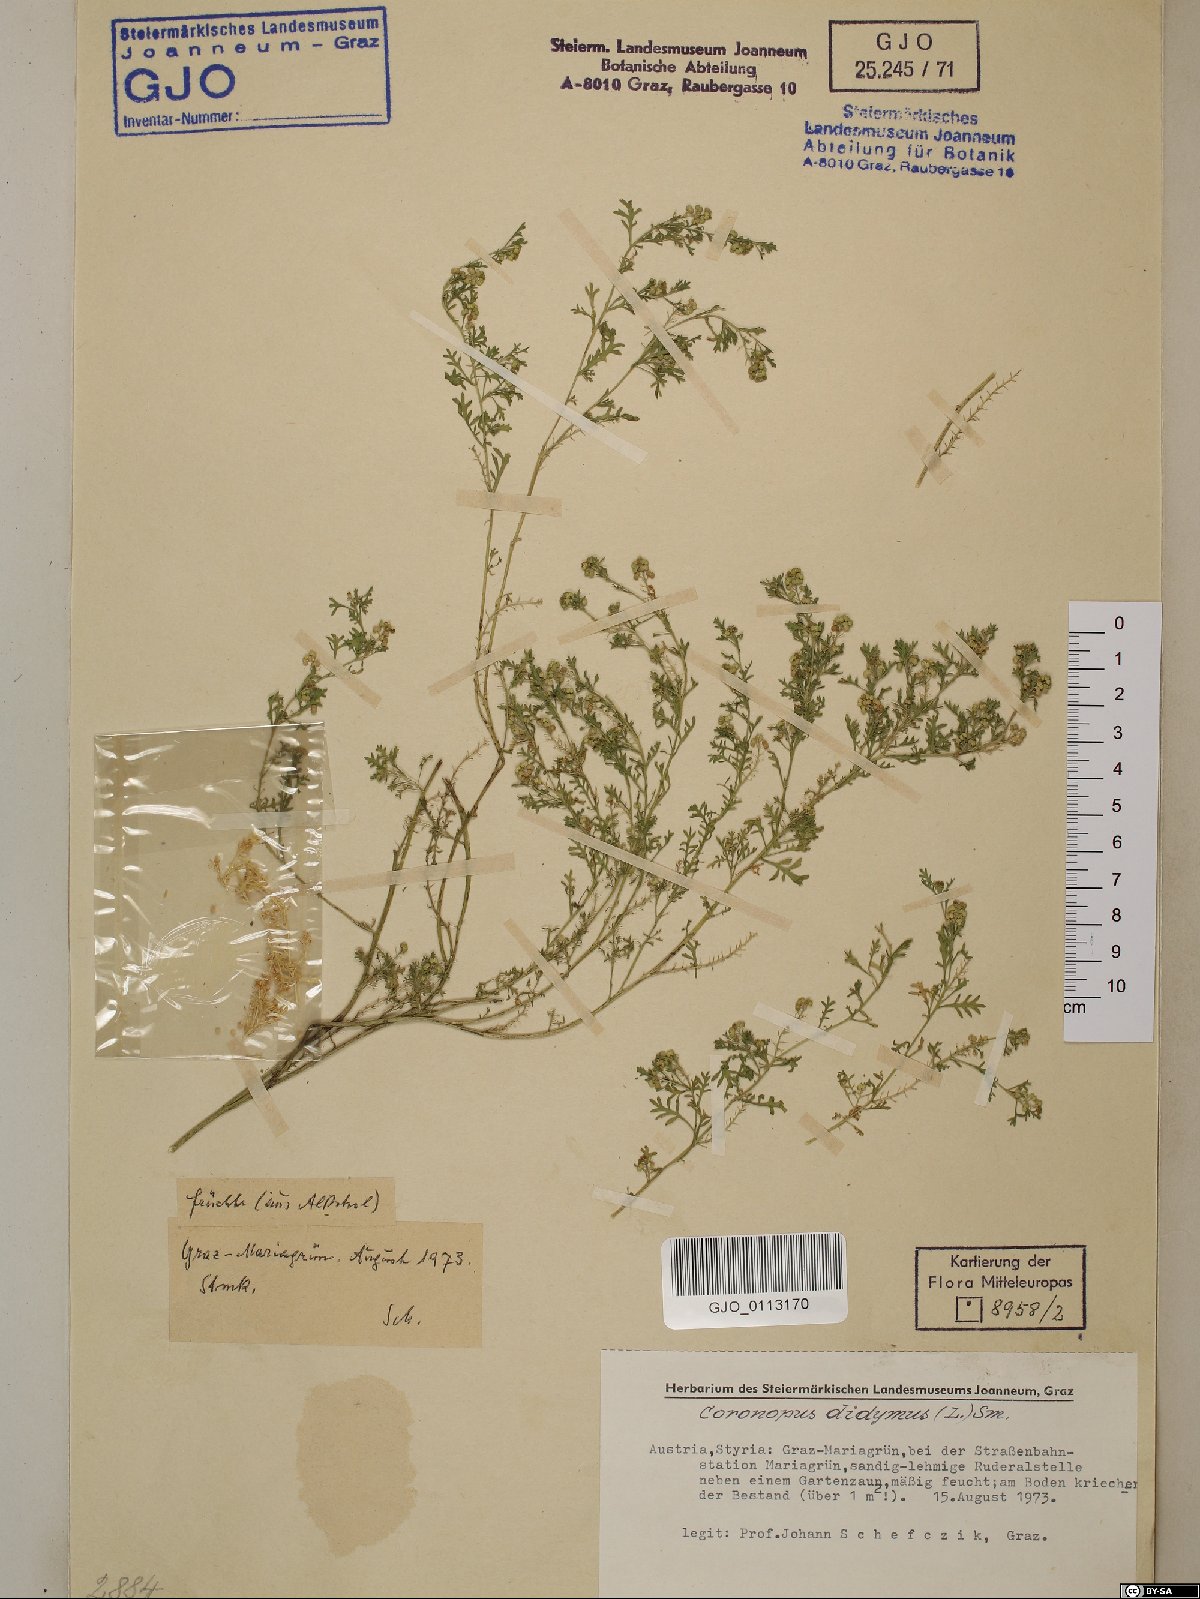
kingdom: Plantae
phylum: Tracheophyta
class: Magnoliopsida
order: Brassicales
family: Brassicaceae
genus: Lepidium
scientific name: Lepidium didymum
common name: Lesser swinecress
